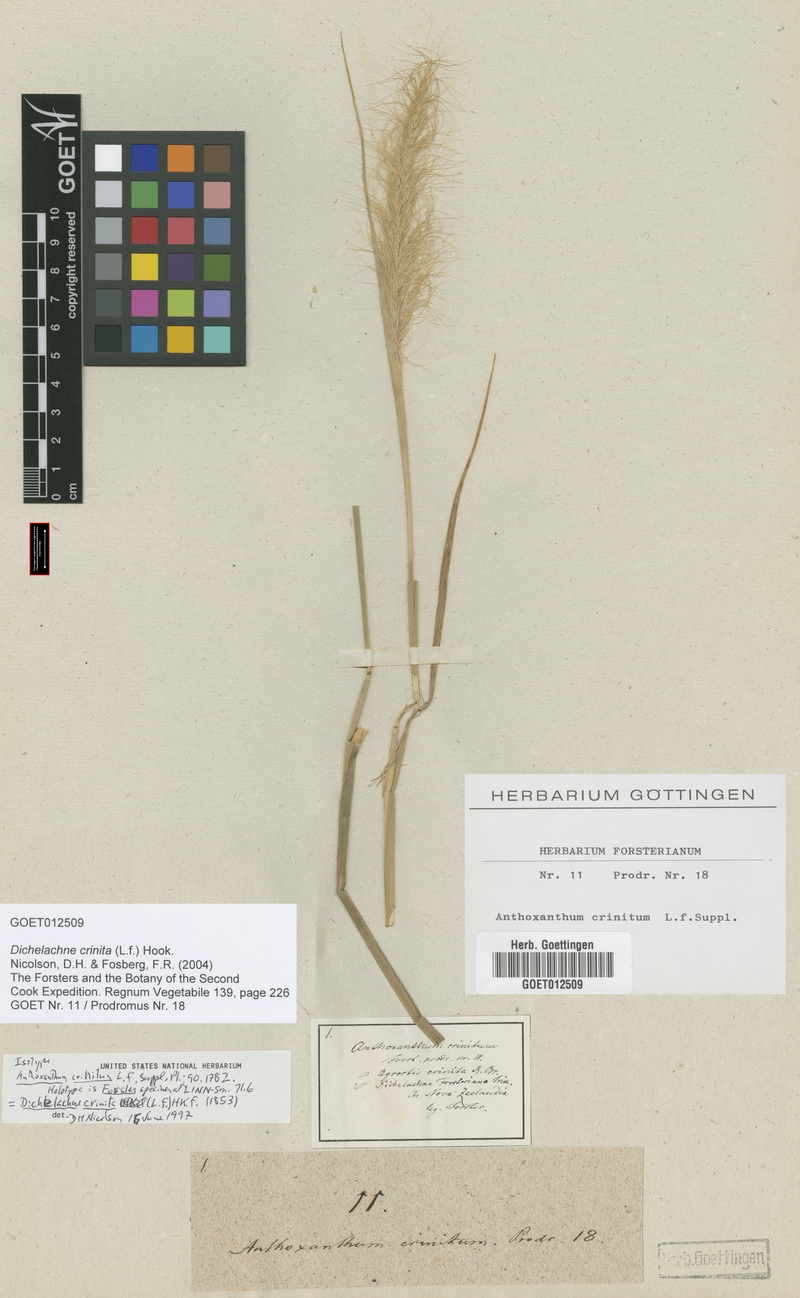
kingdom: Plantae
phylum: Tracheophyta
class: Liliopsida
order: Poales
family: Poaceae
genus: Dichelachne
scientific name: Dichelachne crinita
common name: Clovenfoot plumegrass
